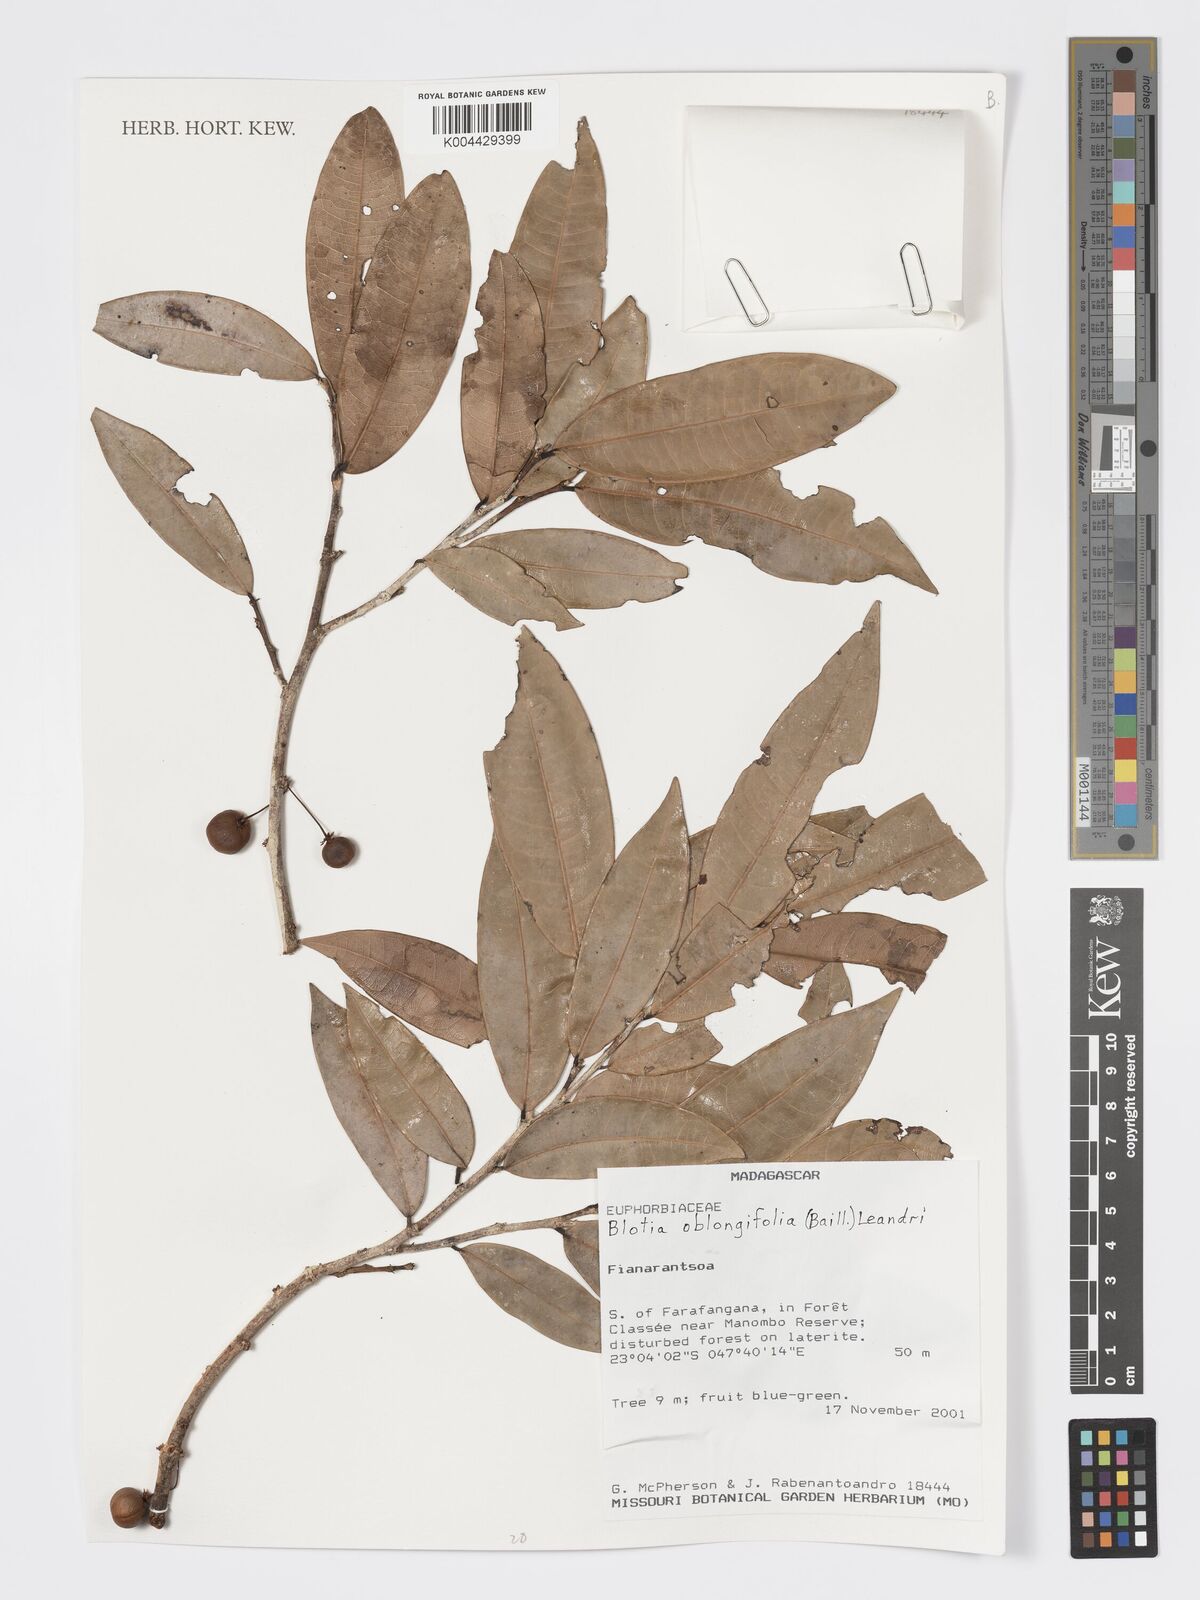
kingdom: Plantae
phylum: Tracheophyta
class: Magnoliopsida
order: Malpighiales
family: Phyllanthaceae
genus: Wielandia
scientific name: Wielandia oblongifolia
